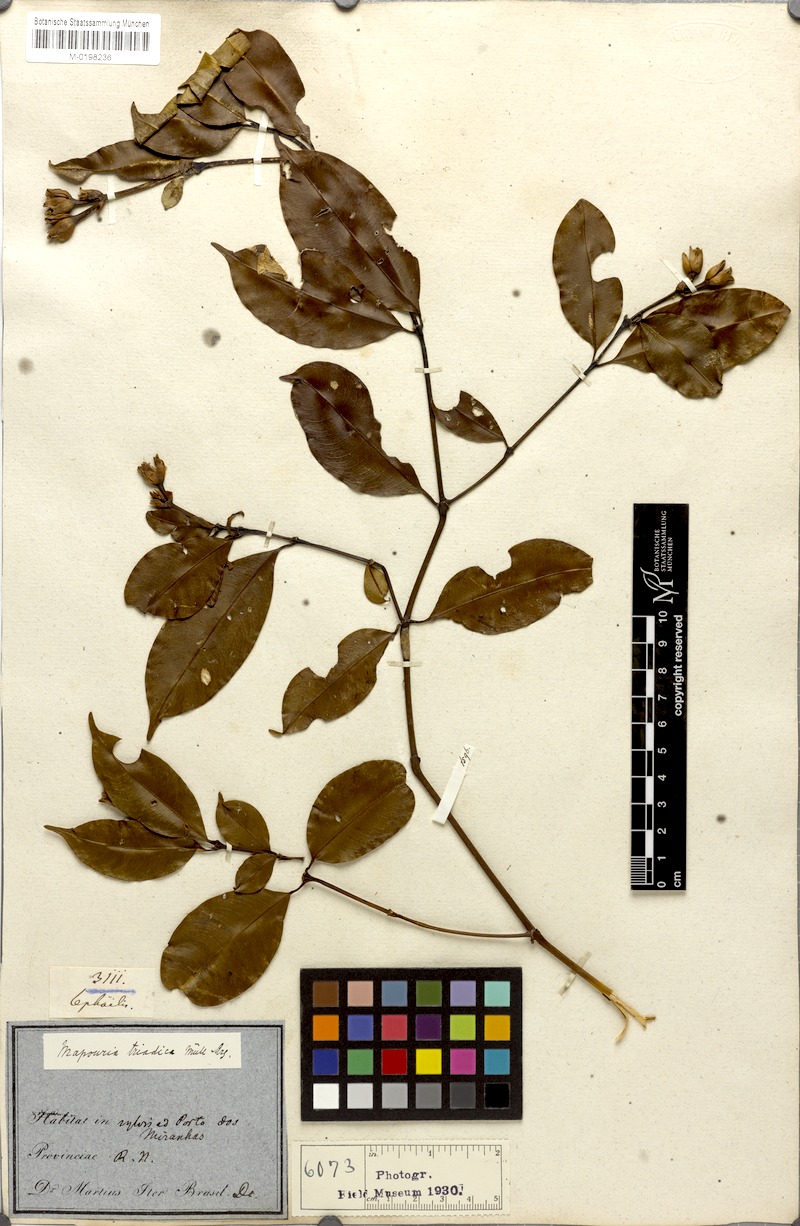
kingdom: Plantae
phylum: Tracheophyta
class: Magnoliopsida
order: Gentianales
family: Rubiaceae
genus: Palicourea
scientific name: Palicourea triadica
